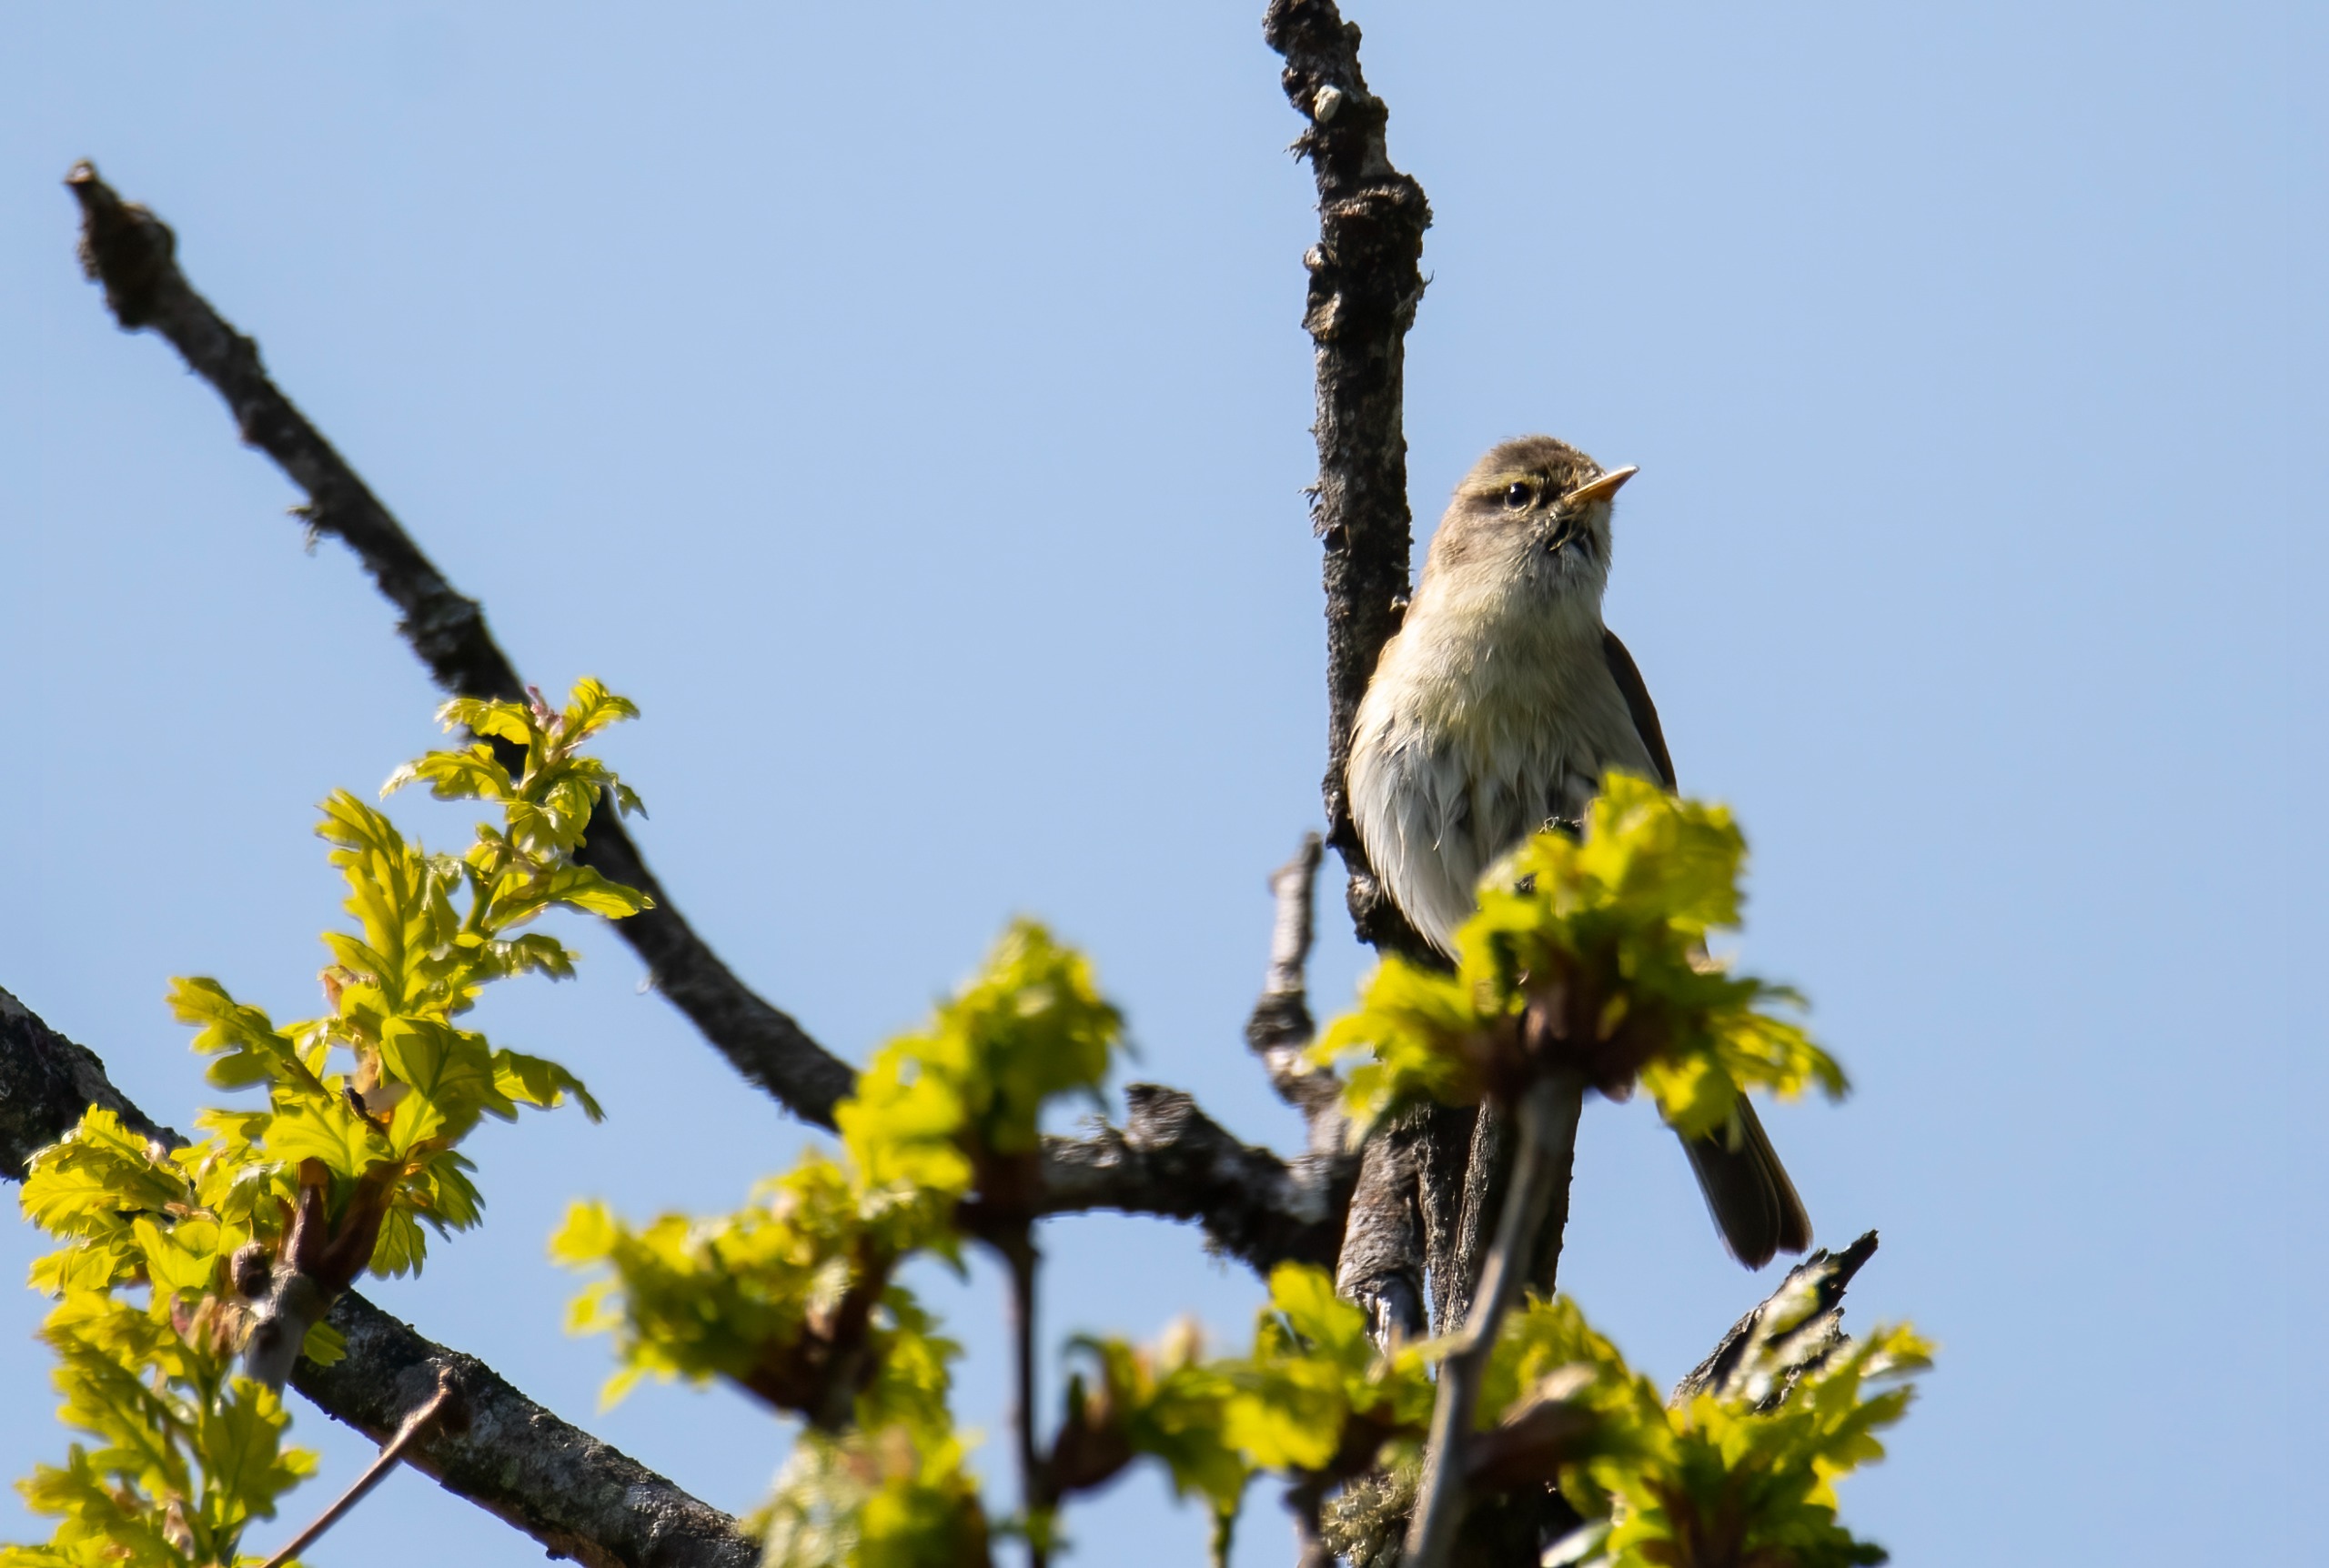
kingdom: Animalia
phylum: Chordata
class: Aves
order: Passeriformes
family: Phylloscopidae
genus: Phylloscopus
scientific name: Phylloscopus trochilus
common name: Løvsanger
